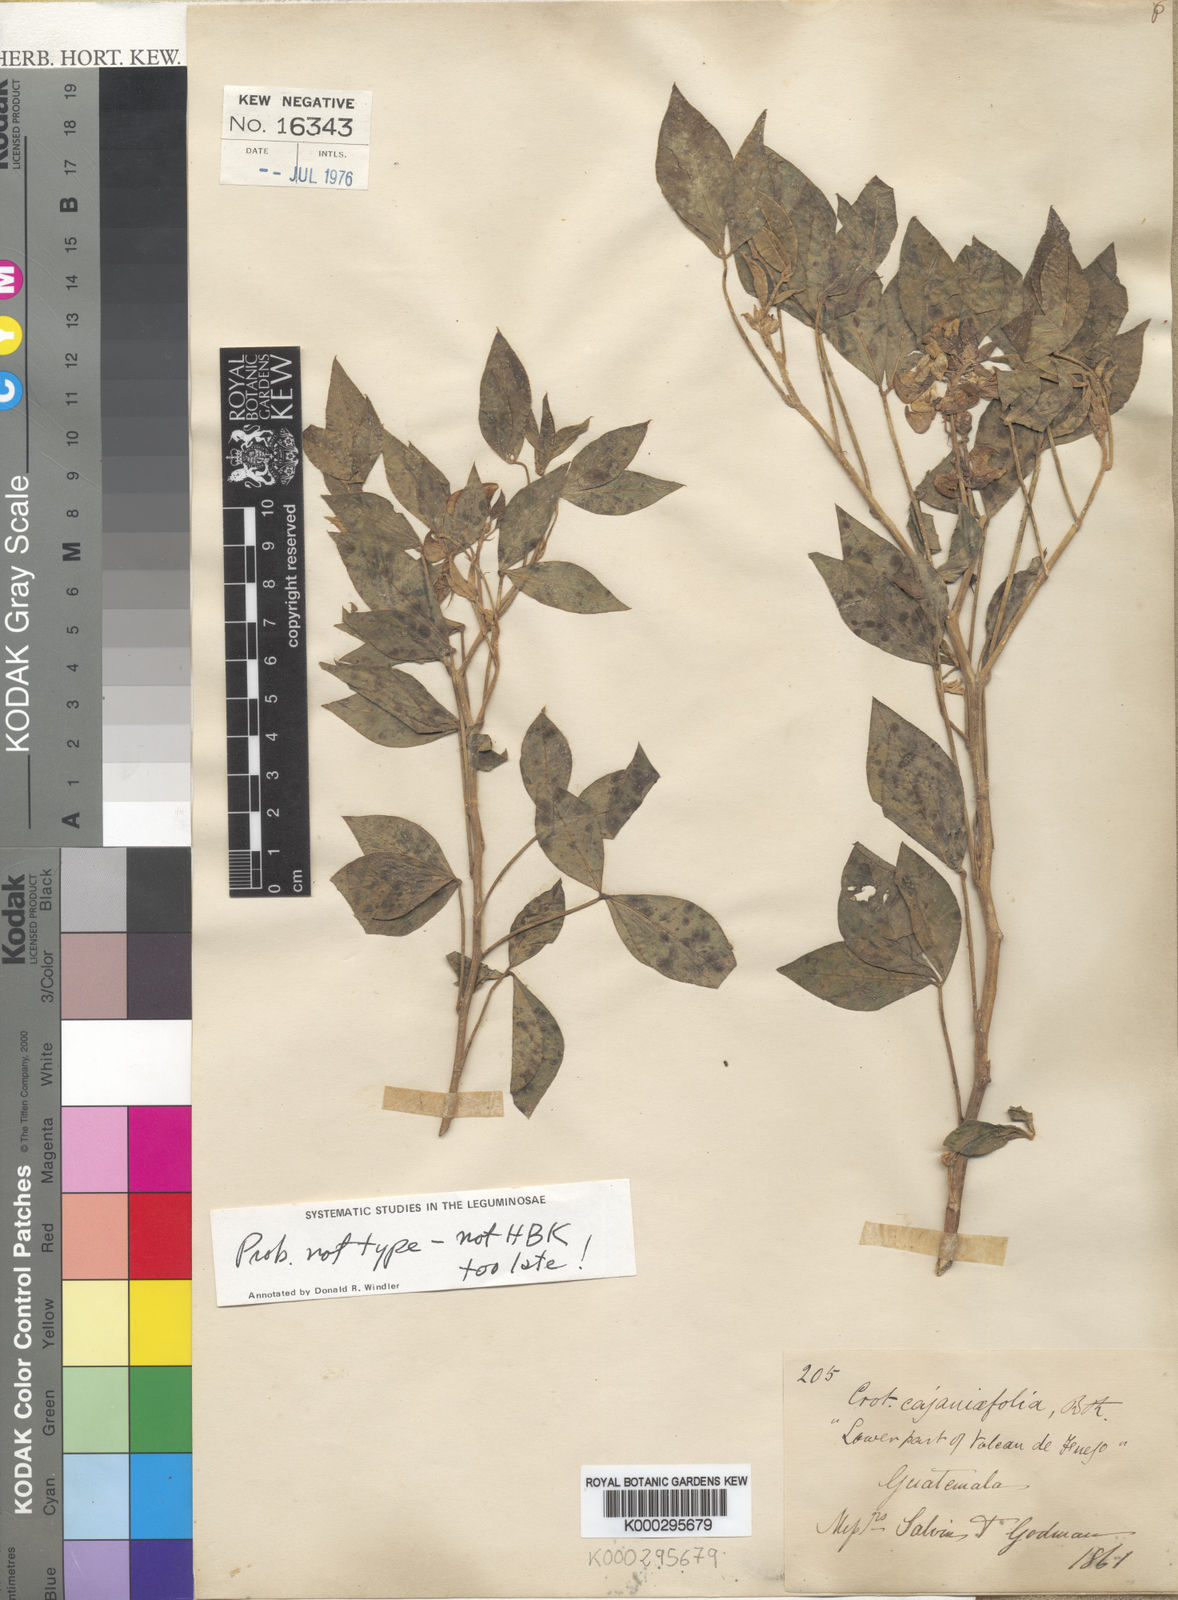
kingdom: Plantae
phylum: Tracheophyta
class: Magnoliopsida
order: Fabales
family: Fabaceae
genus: Crotalaria
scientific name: Crotalaria cajanifolia
